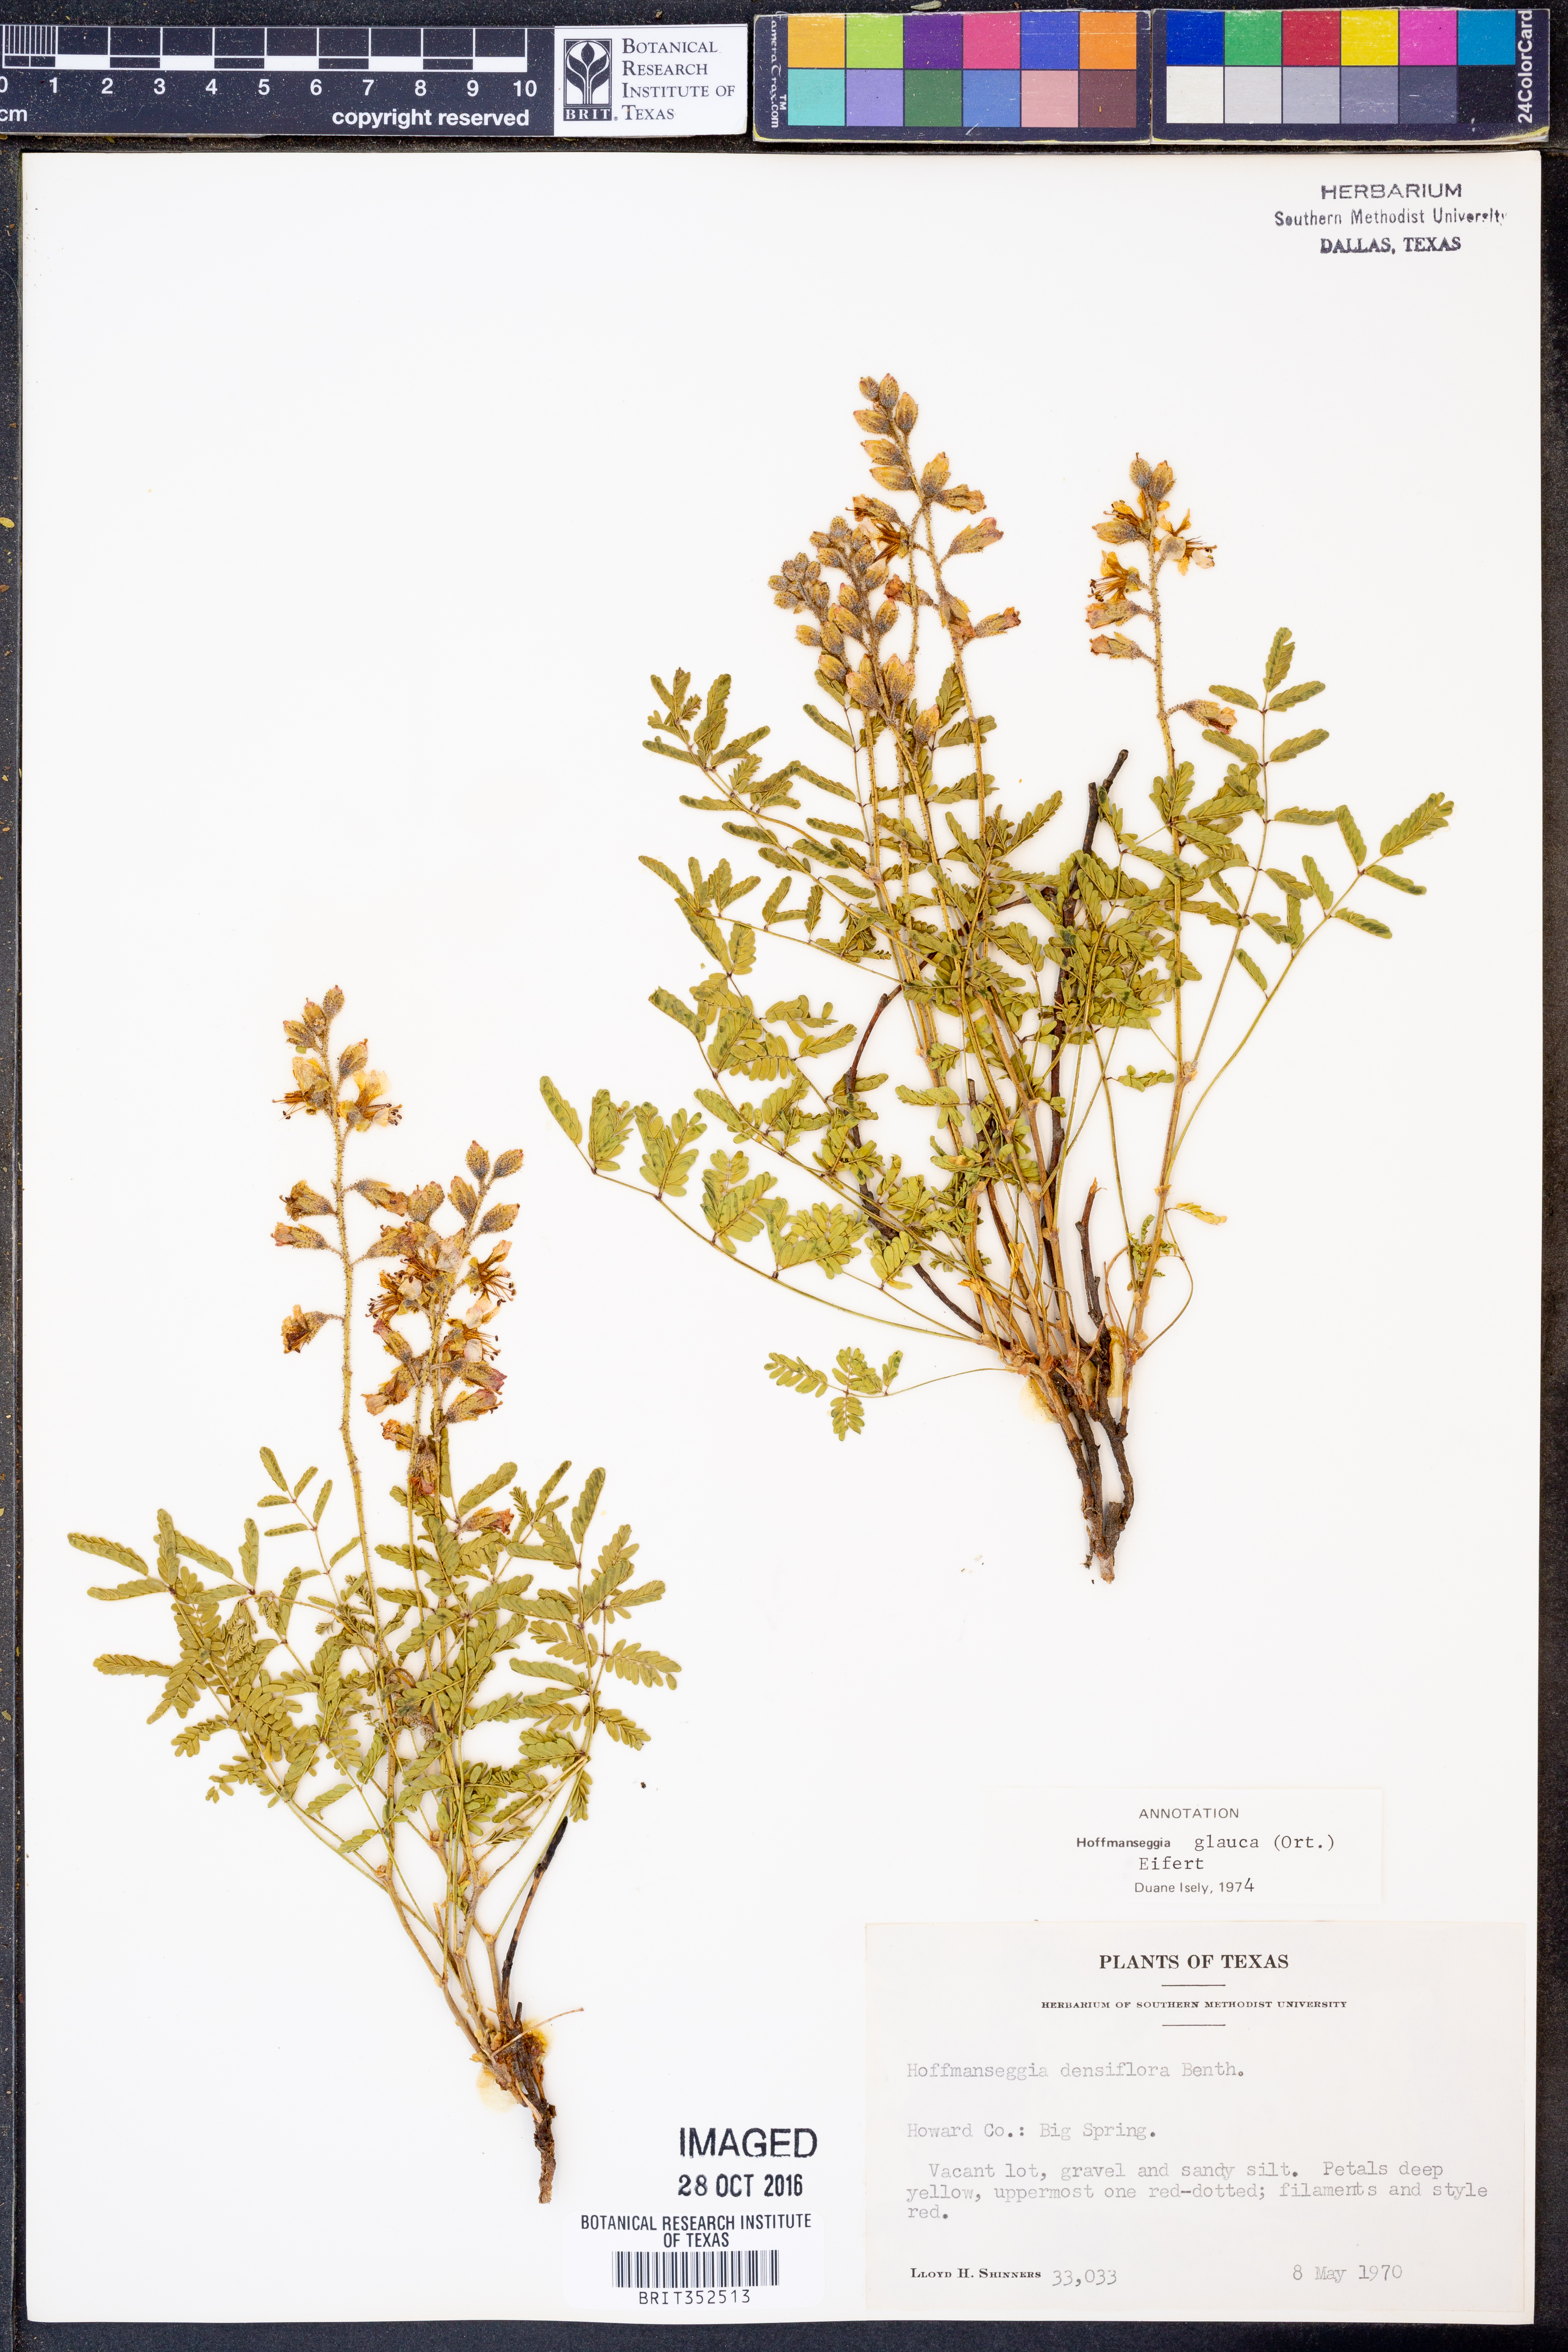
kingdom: Plantae
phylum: Tracheophyta
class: Magnoliopsida
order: Fabales
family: Fabaceae
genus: Hoffmannseggia
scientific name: Hoffmannseggia glauca
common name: Pignut
